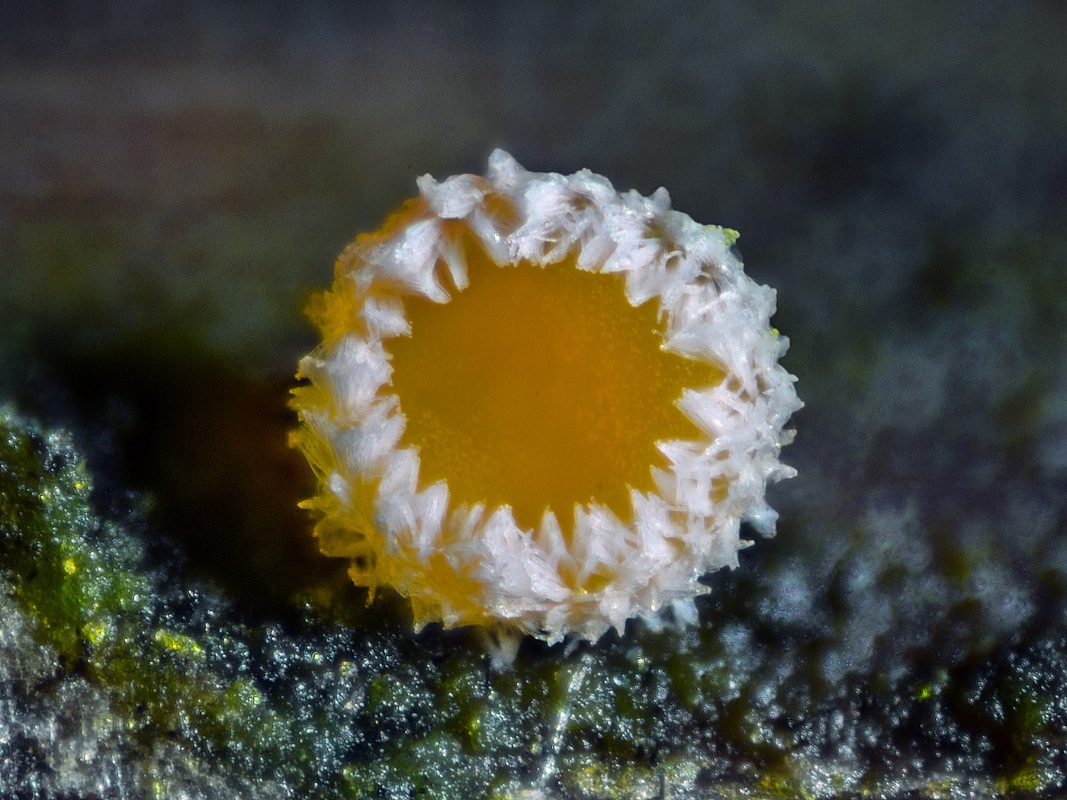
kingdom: Fungi
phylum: Ascomycota
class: Leotiomycetes
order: Helotiales
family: Lachnaceae
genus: Capitotricha
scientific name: Capitotricha bicolor
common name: prægtig frynseskive
